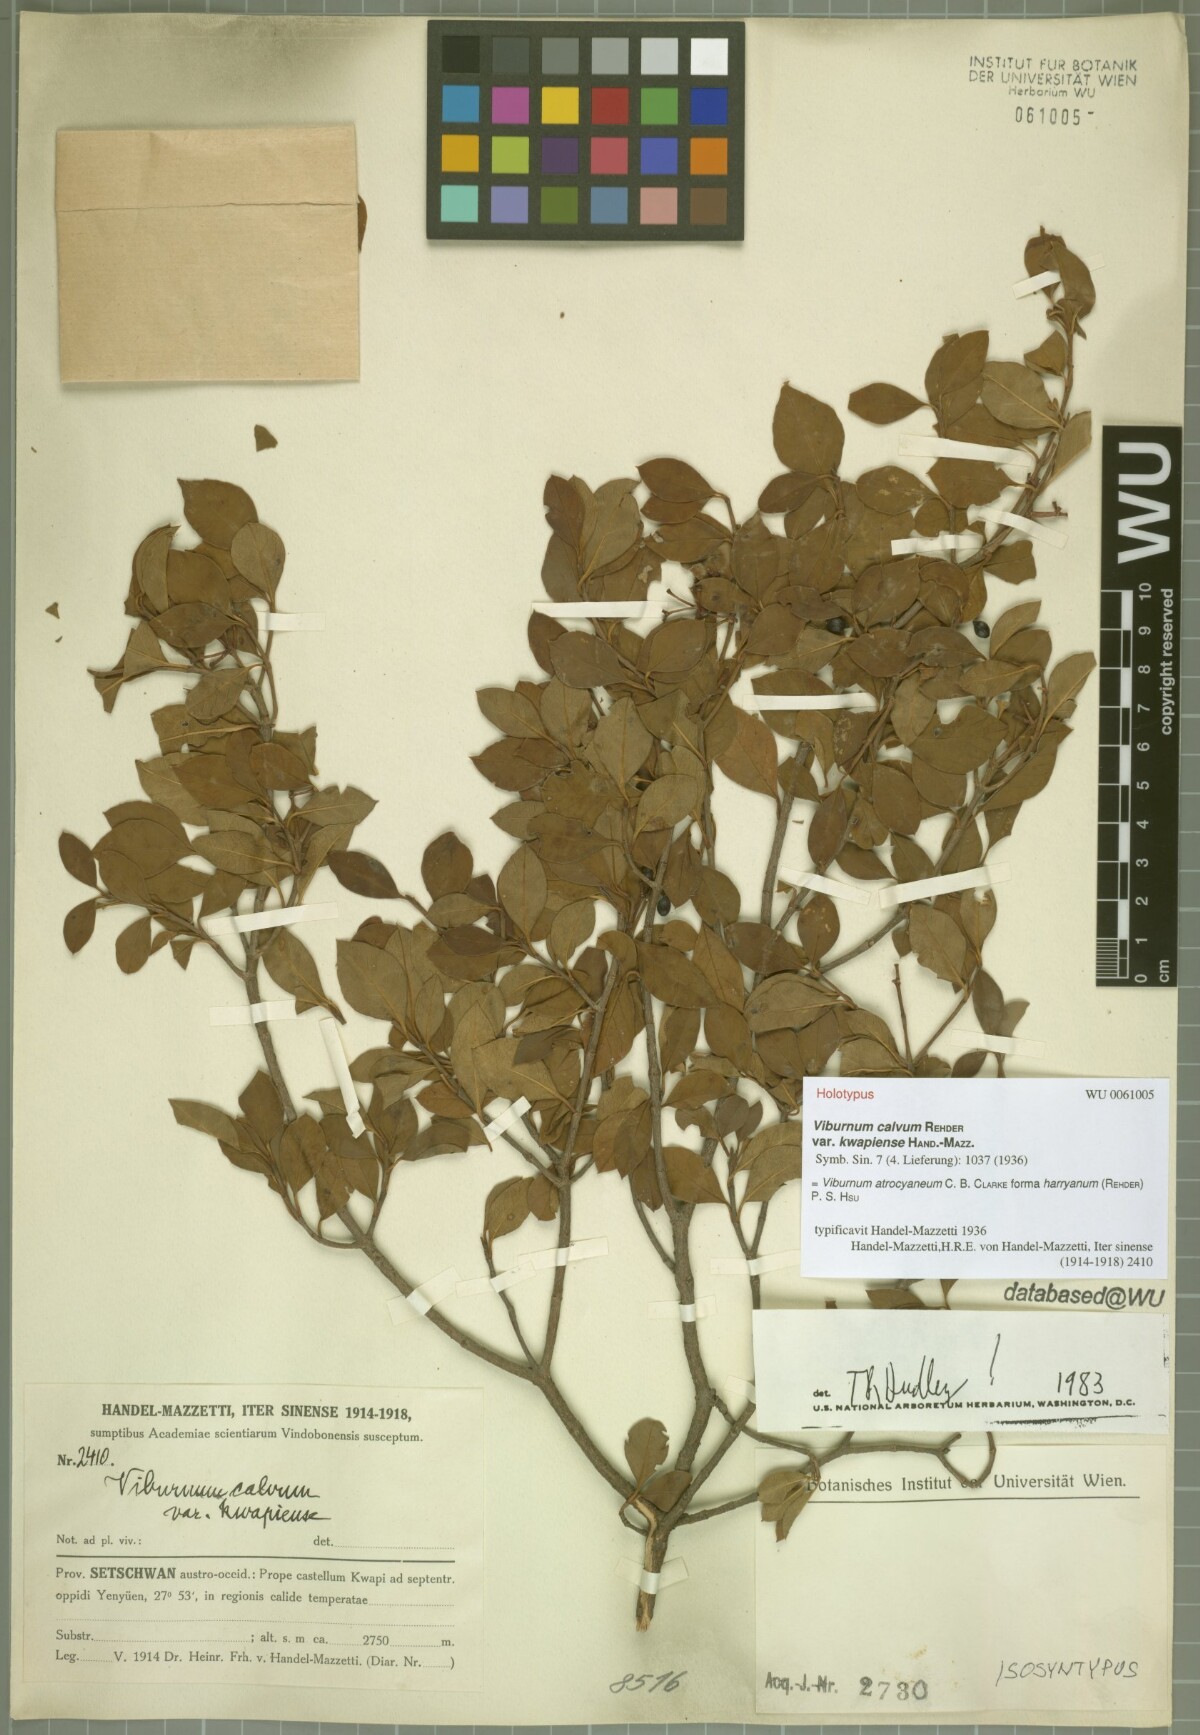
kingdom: Plantae
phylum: Tracheophyta
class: Magnoliopsida
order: Dipsacales
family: Viburnaceae
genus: Viburnum
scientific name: Viburnum atrocyaneum
